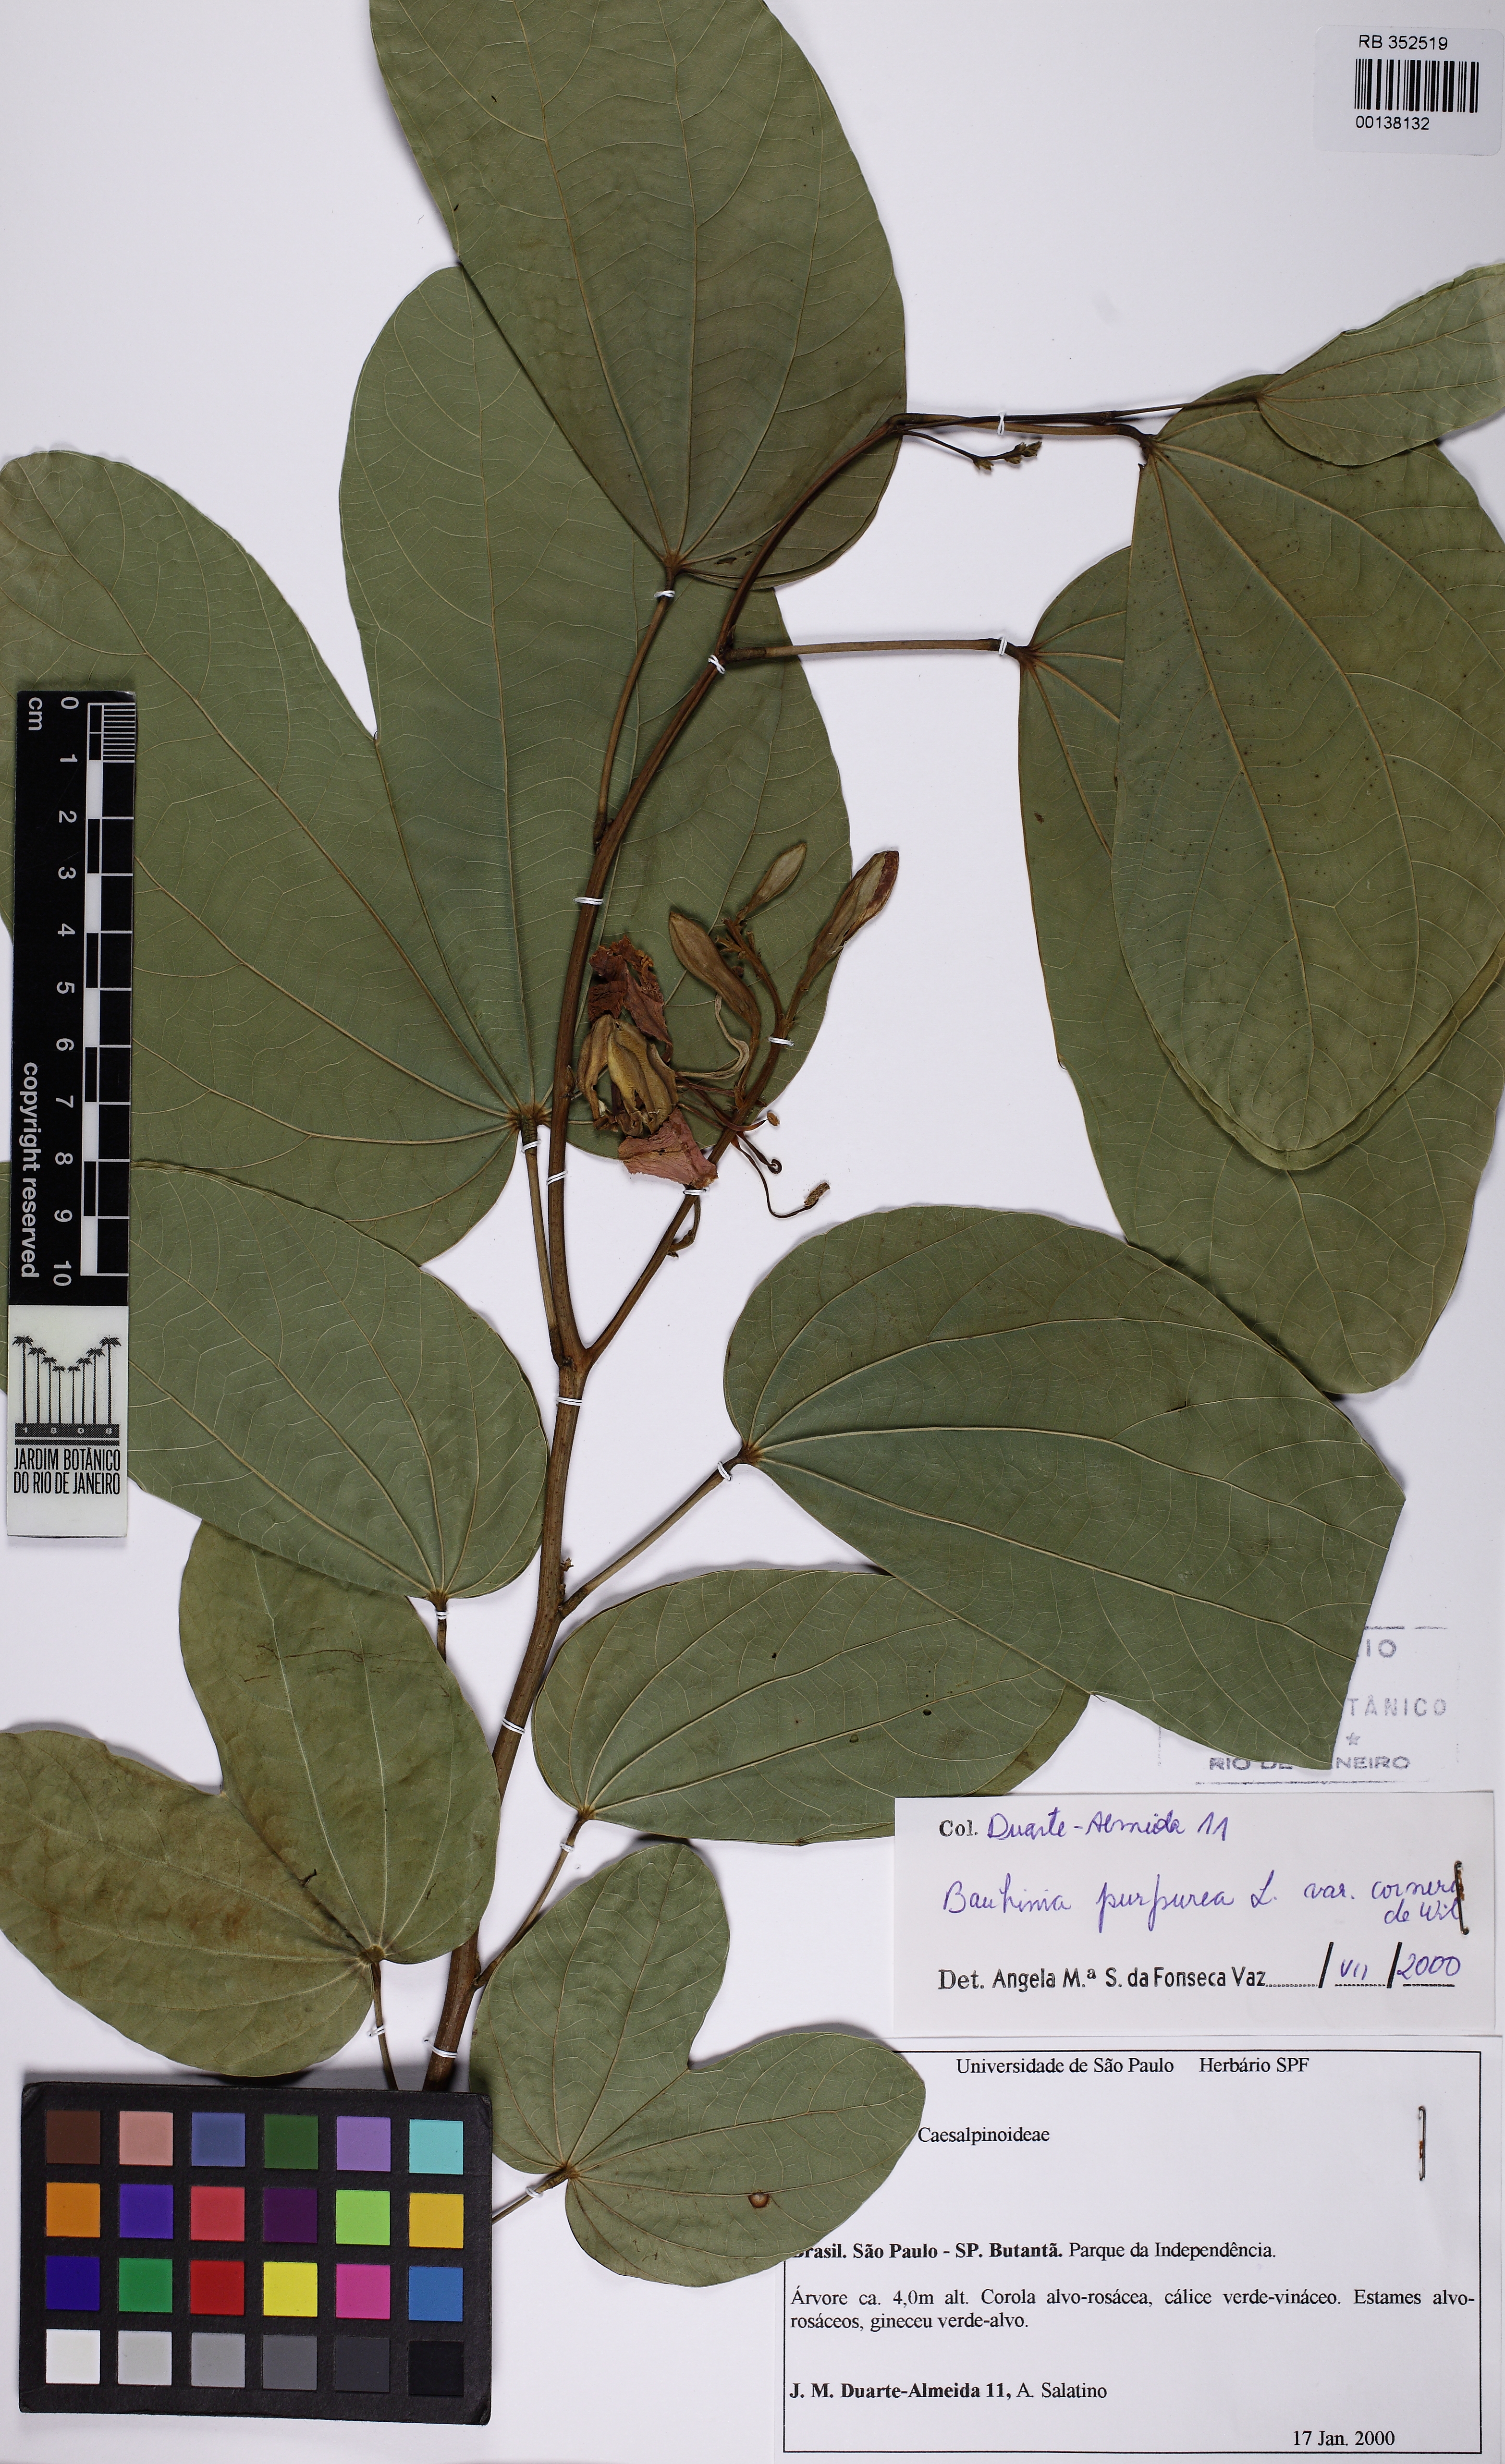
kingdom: Plantae
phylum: Tracheophyta
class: Magnoliopsida
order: Fabales
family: Fabaceae
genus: Bauhinia
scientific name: Bauhinia purpurea
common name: Butterfly-tree
